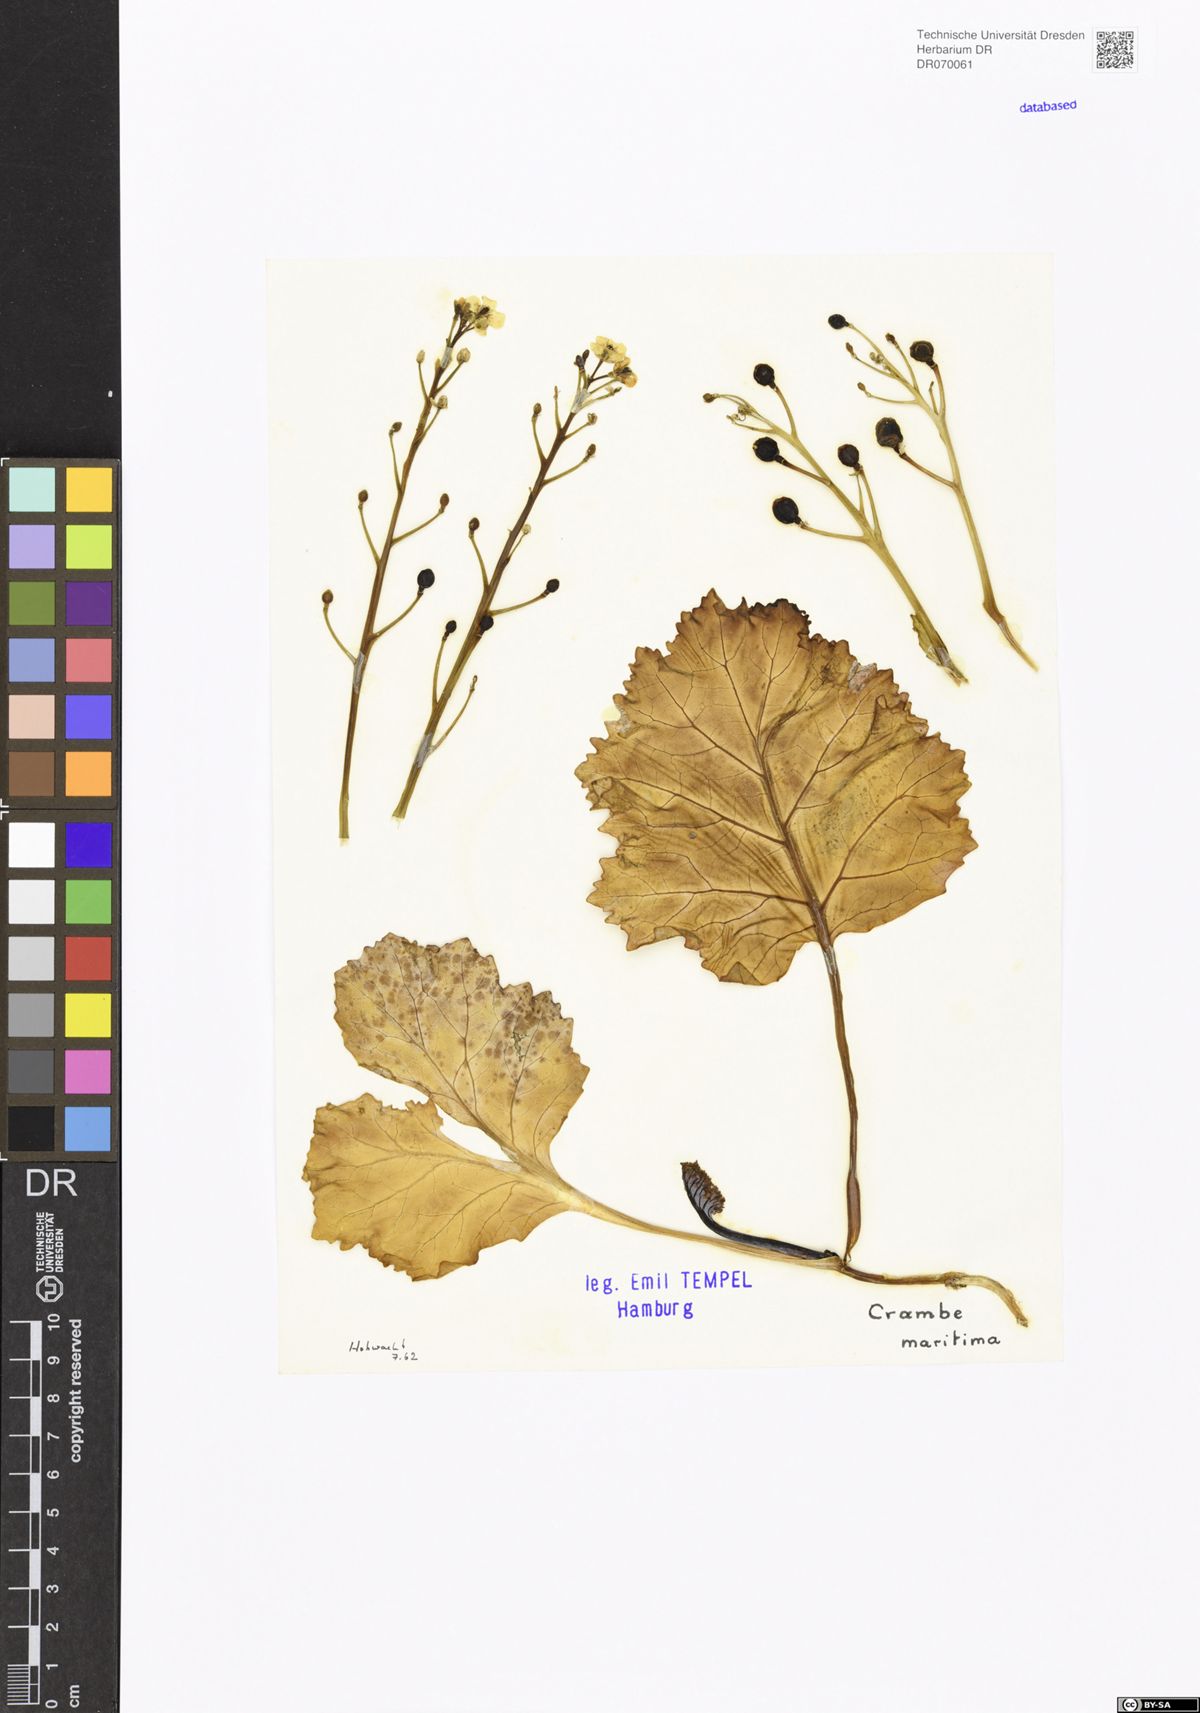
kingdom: Plantae
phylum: Tracheophyta
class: Magnoliopsida
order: Brassicales
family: Brassicaceae
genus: Crambe
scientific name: Crambe maritima
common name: Sea-kale
